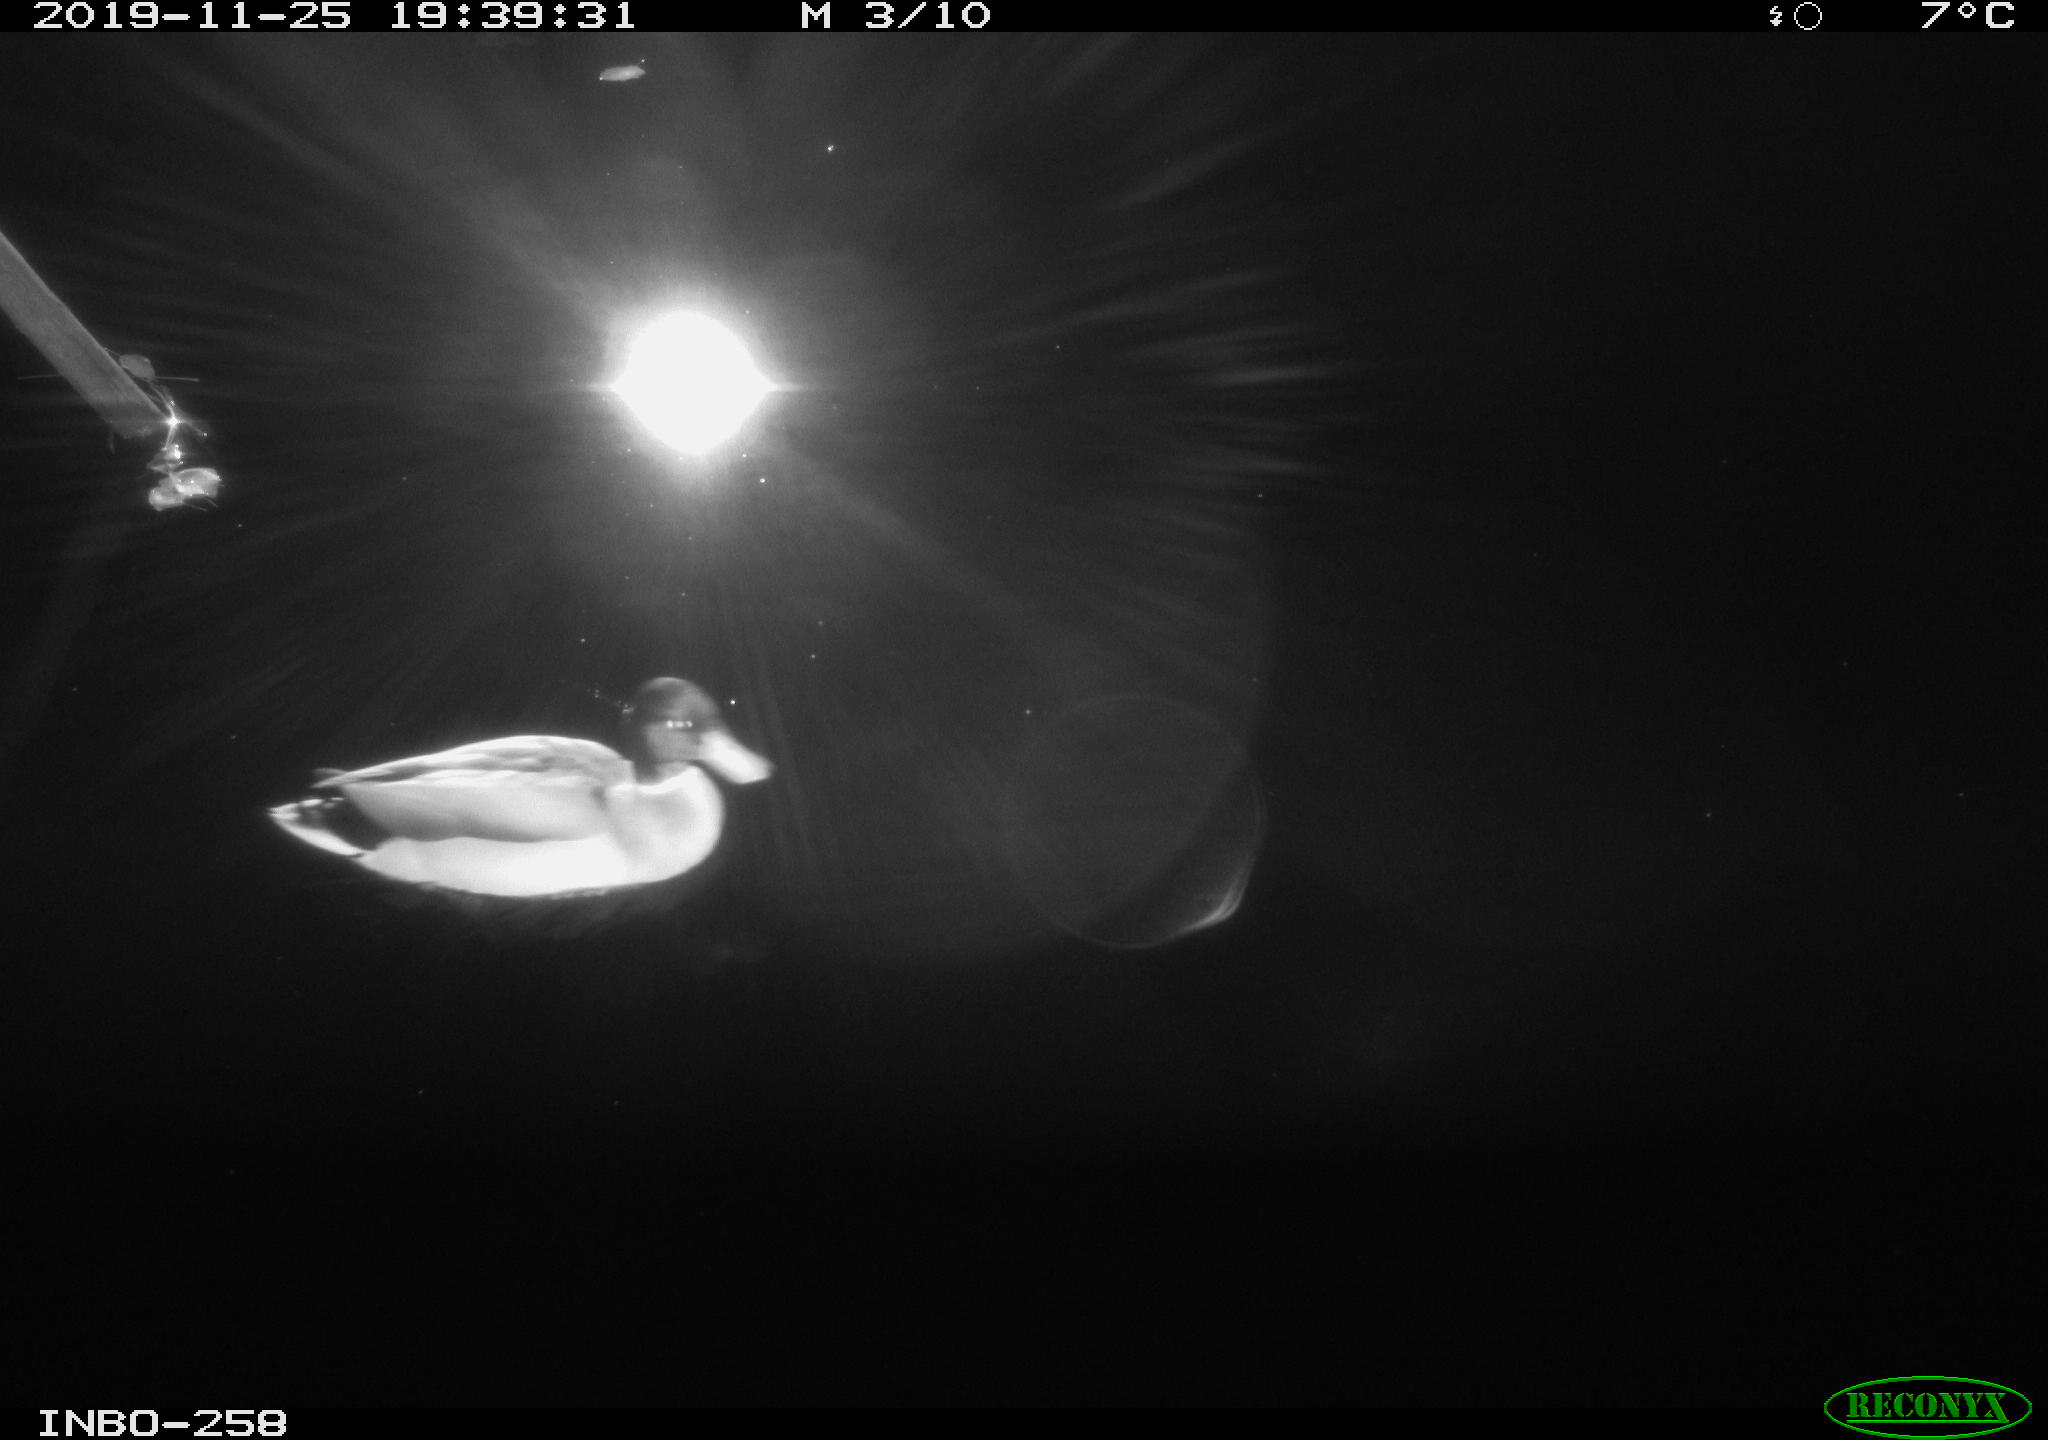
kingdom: Animalia
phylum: Chordata
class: Aves
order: Anseriformes
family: Anatidae
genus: Anas
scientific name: Anas platyrhynchos
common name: Mallard
